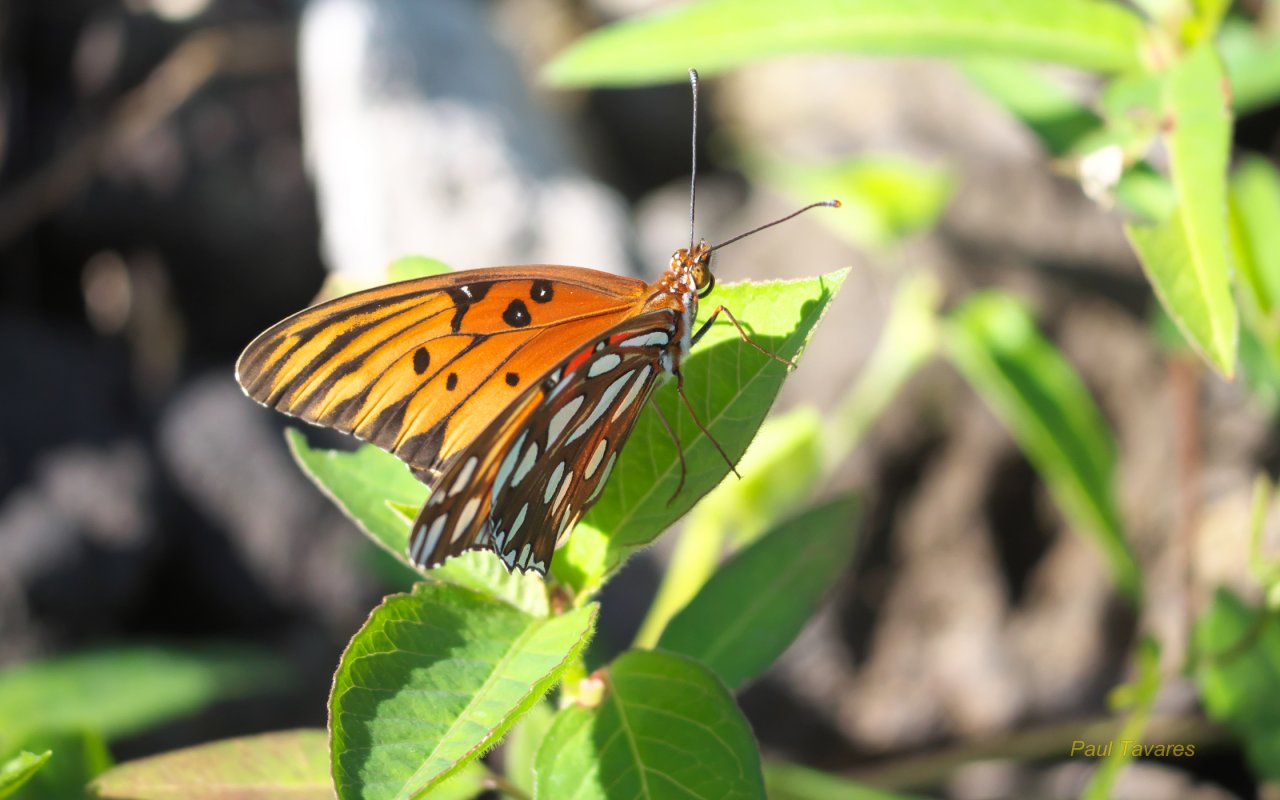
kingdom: Animalia
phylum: Arthropoda
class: Insecta
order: Lepidoptera
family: Nymphalidae
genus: Dione
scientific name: Dione vanillae
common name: Gulf Fritillary
